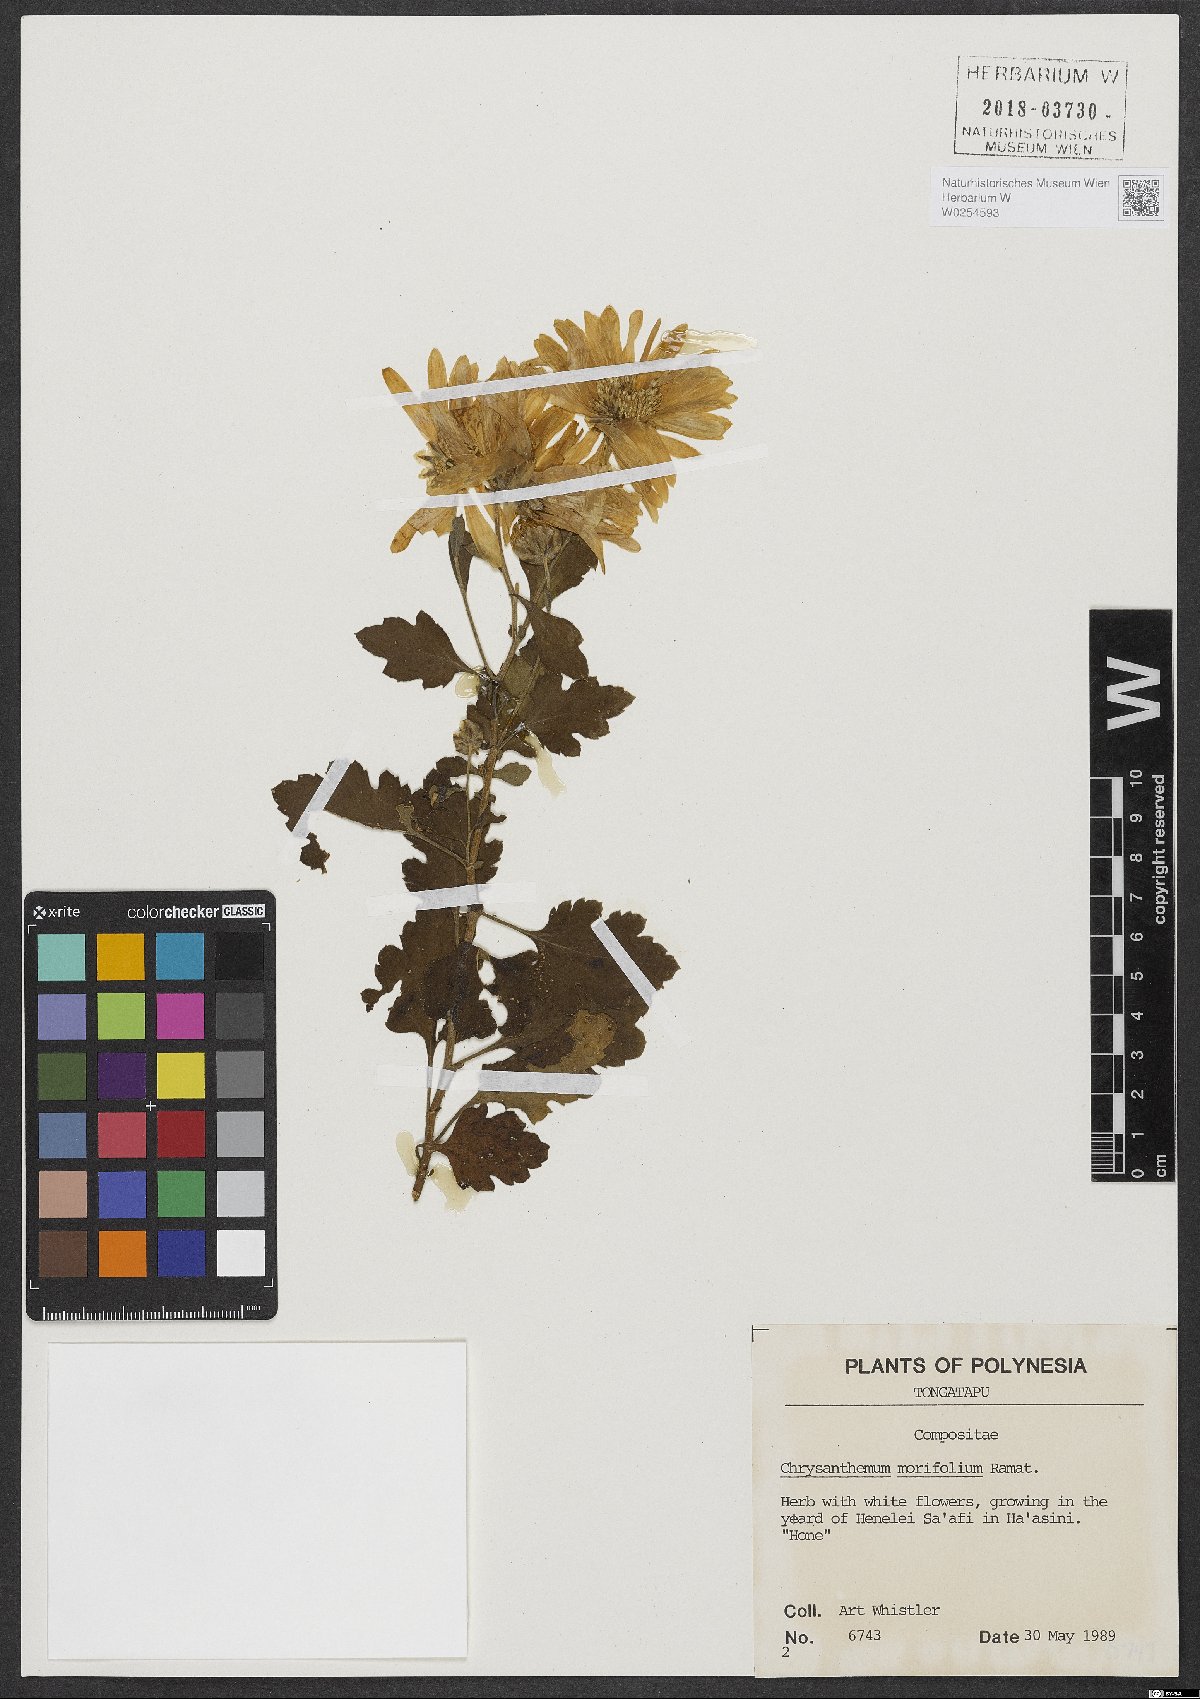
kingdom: Plantae
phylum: Tracheophyta
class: Magnoliopsida
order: Asterales
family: Asteraceae
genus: Chrysanthemum
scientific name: Chrysanthemum morifolium
